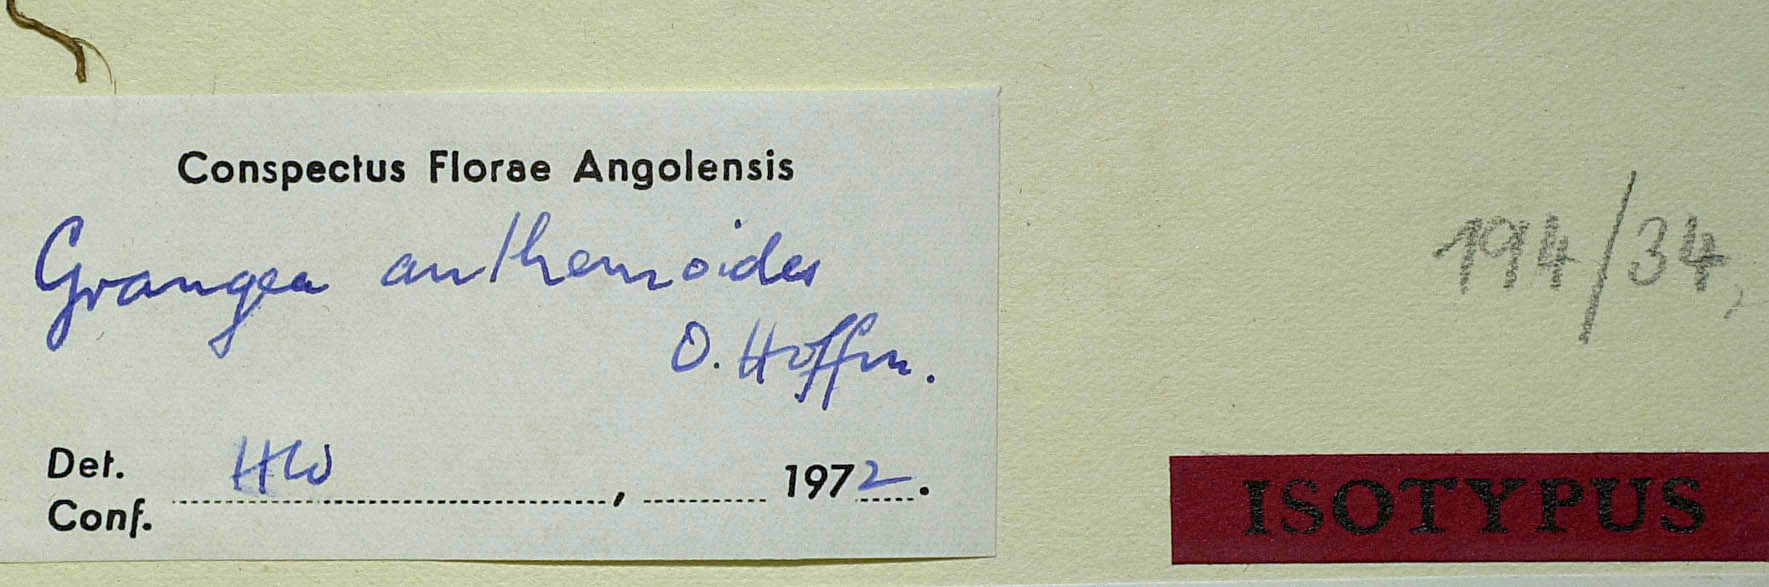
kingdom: Plantae
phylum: Tracheophyta
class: Magnoliopsida
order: Asterales
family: Asteraceae
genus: Grangea
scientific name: Grangea anthemoides
